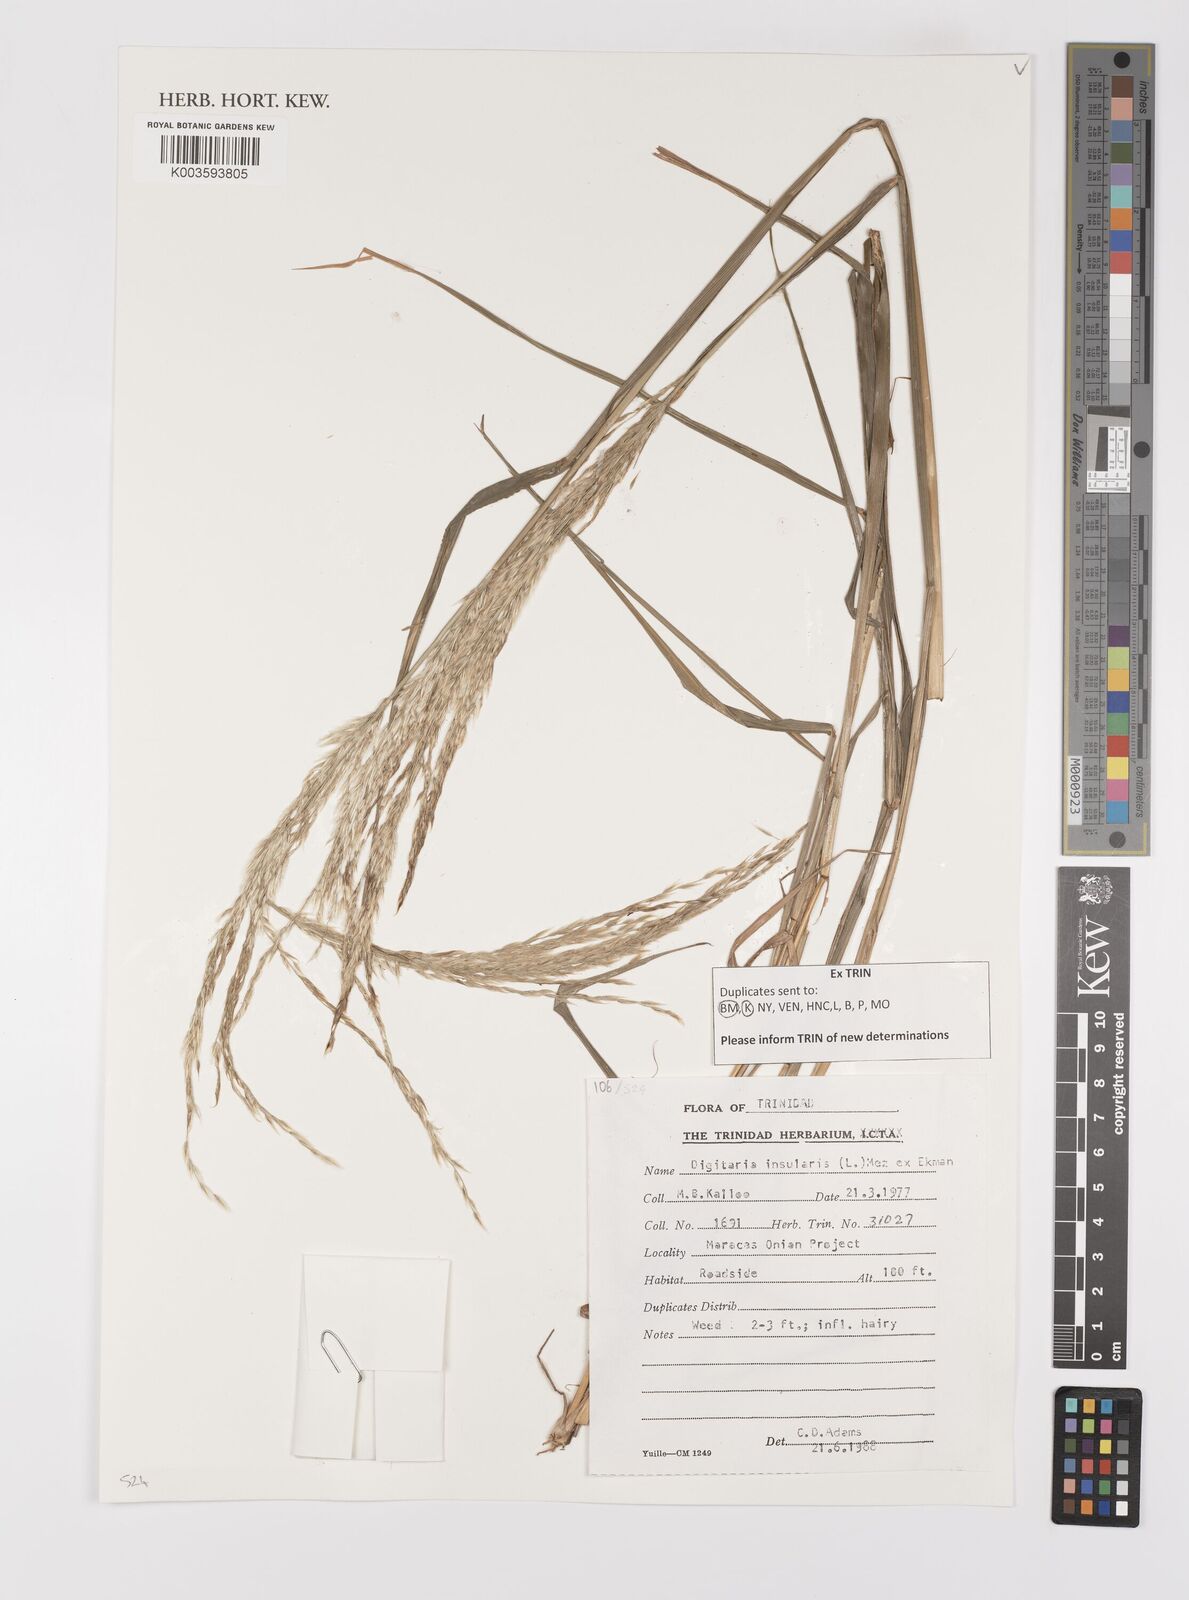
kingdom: Plantae
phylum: Tracheophyta
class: Liliopsida
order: Poales
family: Poaceae
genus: Digitaria
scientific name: Digitaria insularis
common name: Sourgrass
